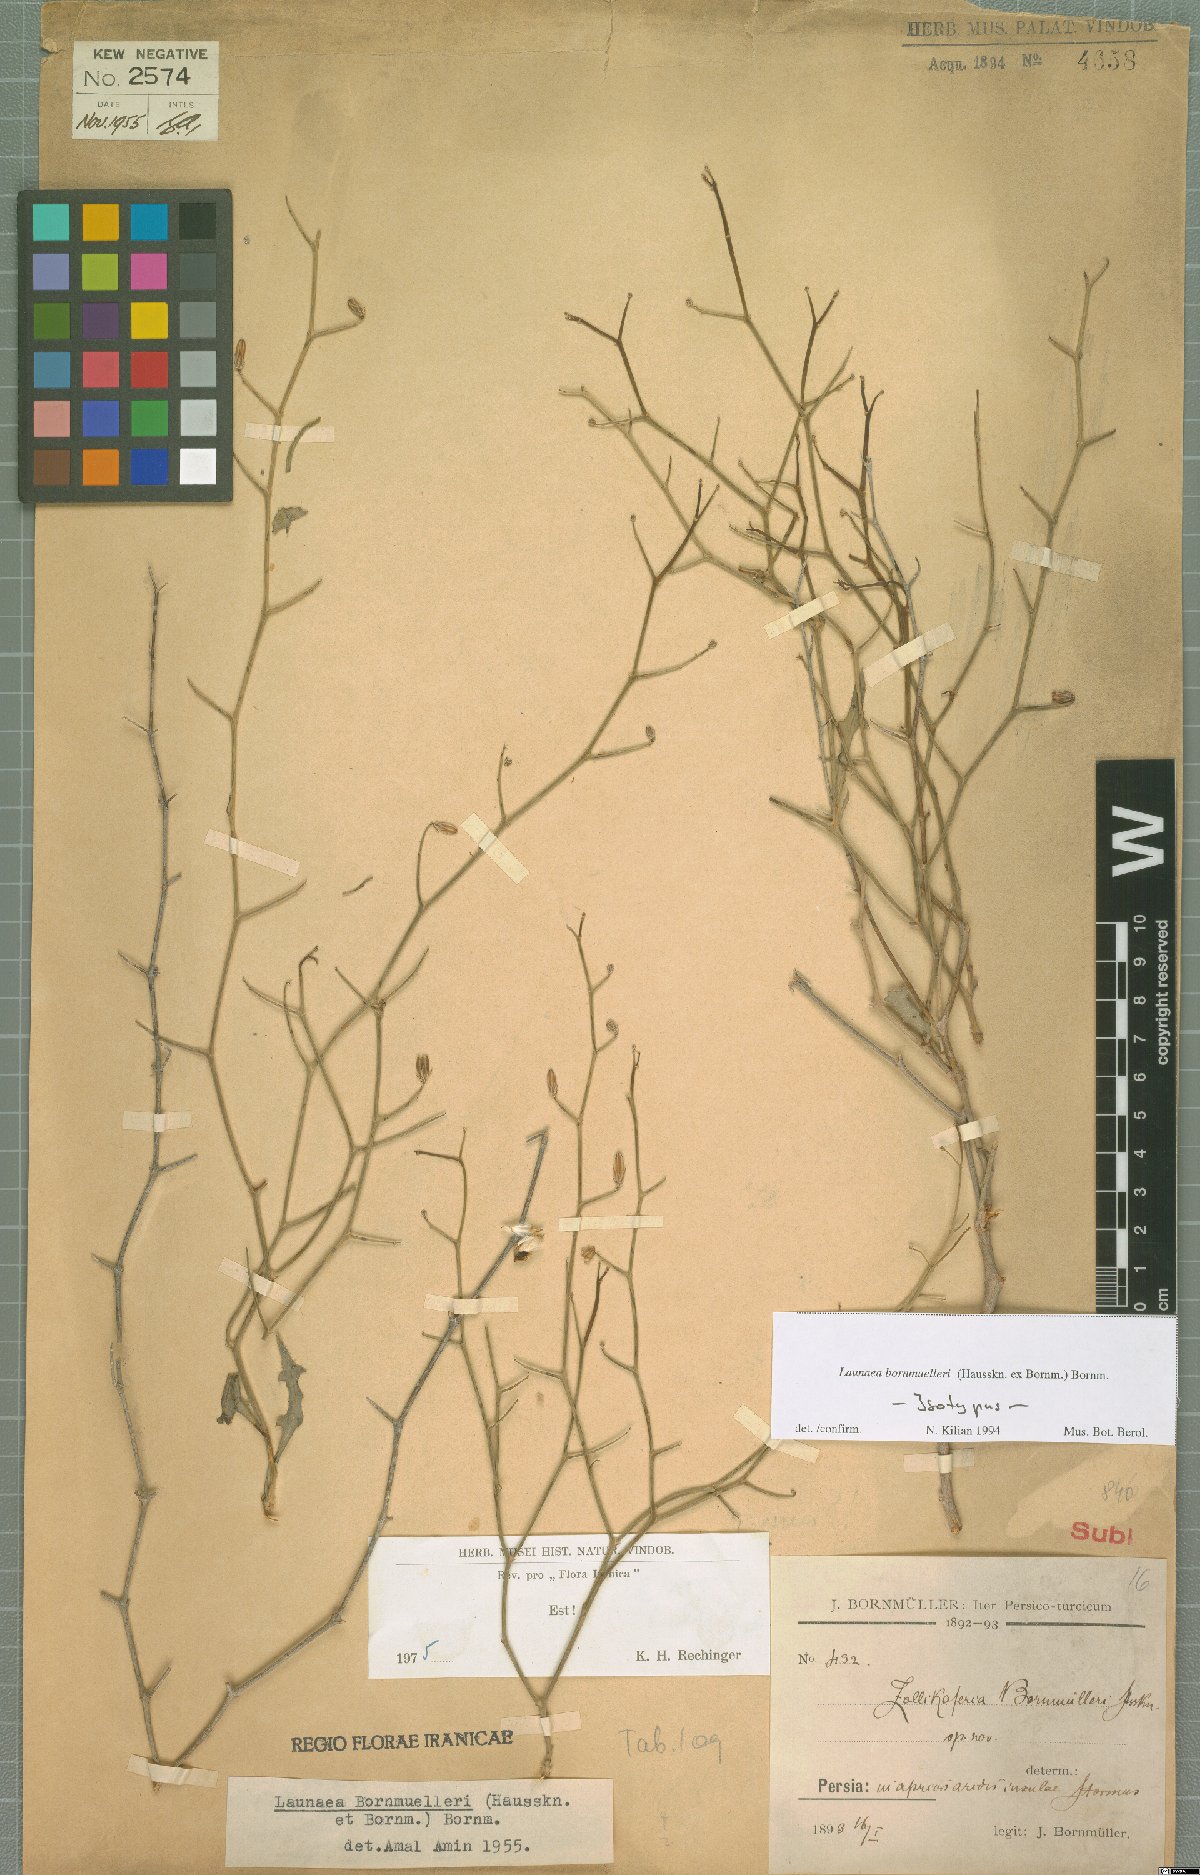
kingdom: Plantae
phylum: Tracheophyta
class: Magnoliopsida
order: Asterales
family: Asteraceae
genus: Launaea
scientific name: Launaea bornmuelleri
